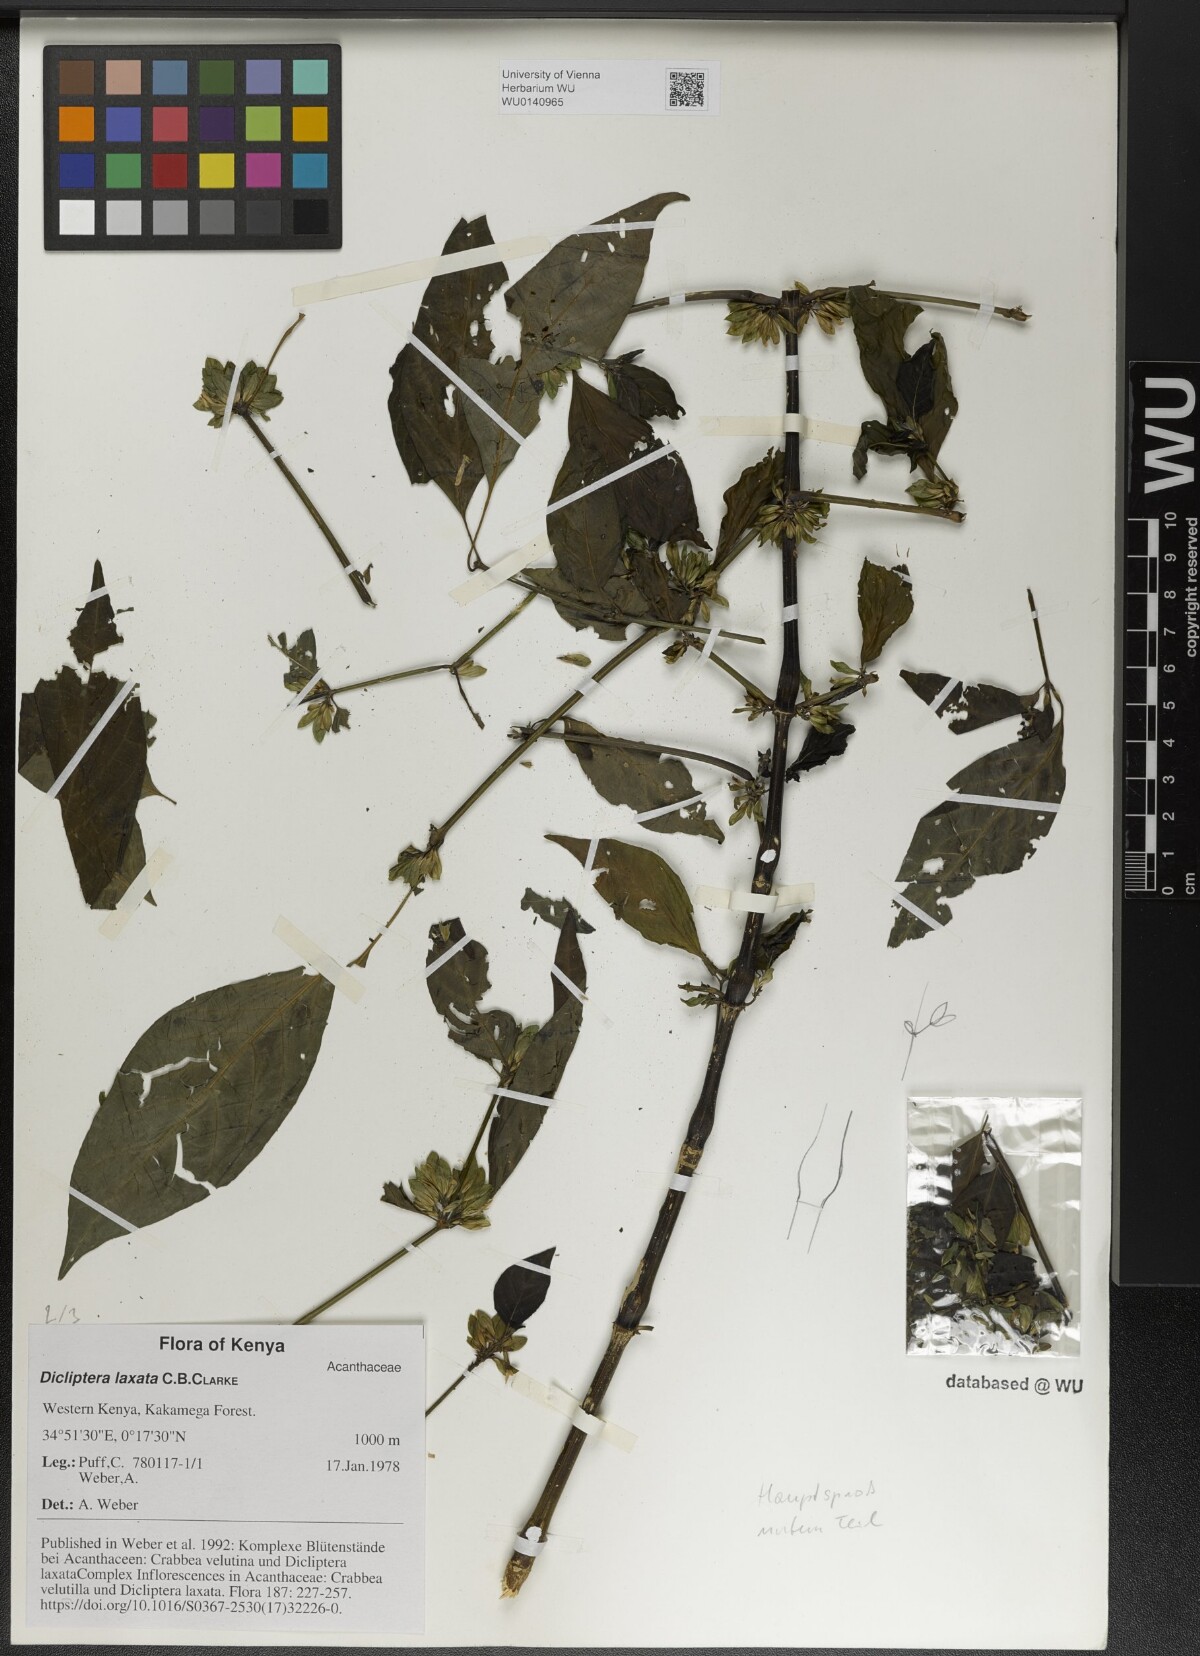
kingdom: Plantae
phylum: Tracheophyta
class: Magnoliopsida
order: Lamiales
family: Acanthaceae
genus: Dicliptera
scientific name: Dicliptera laxata
